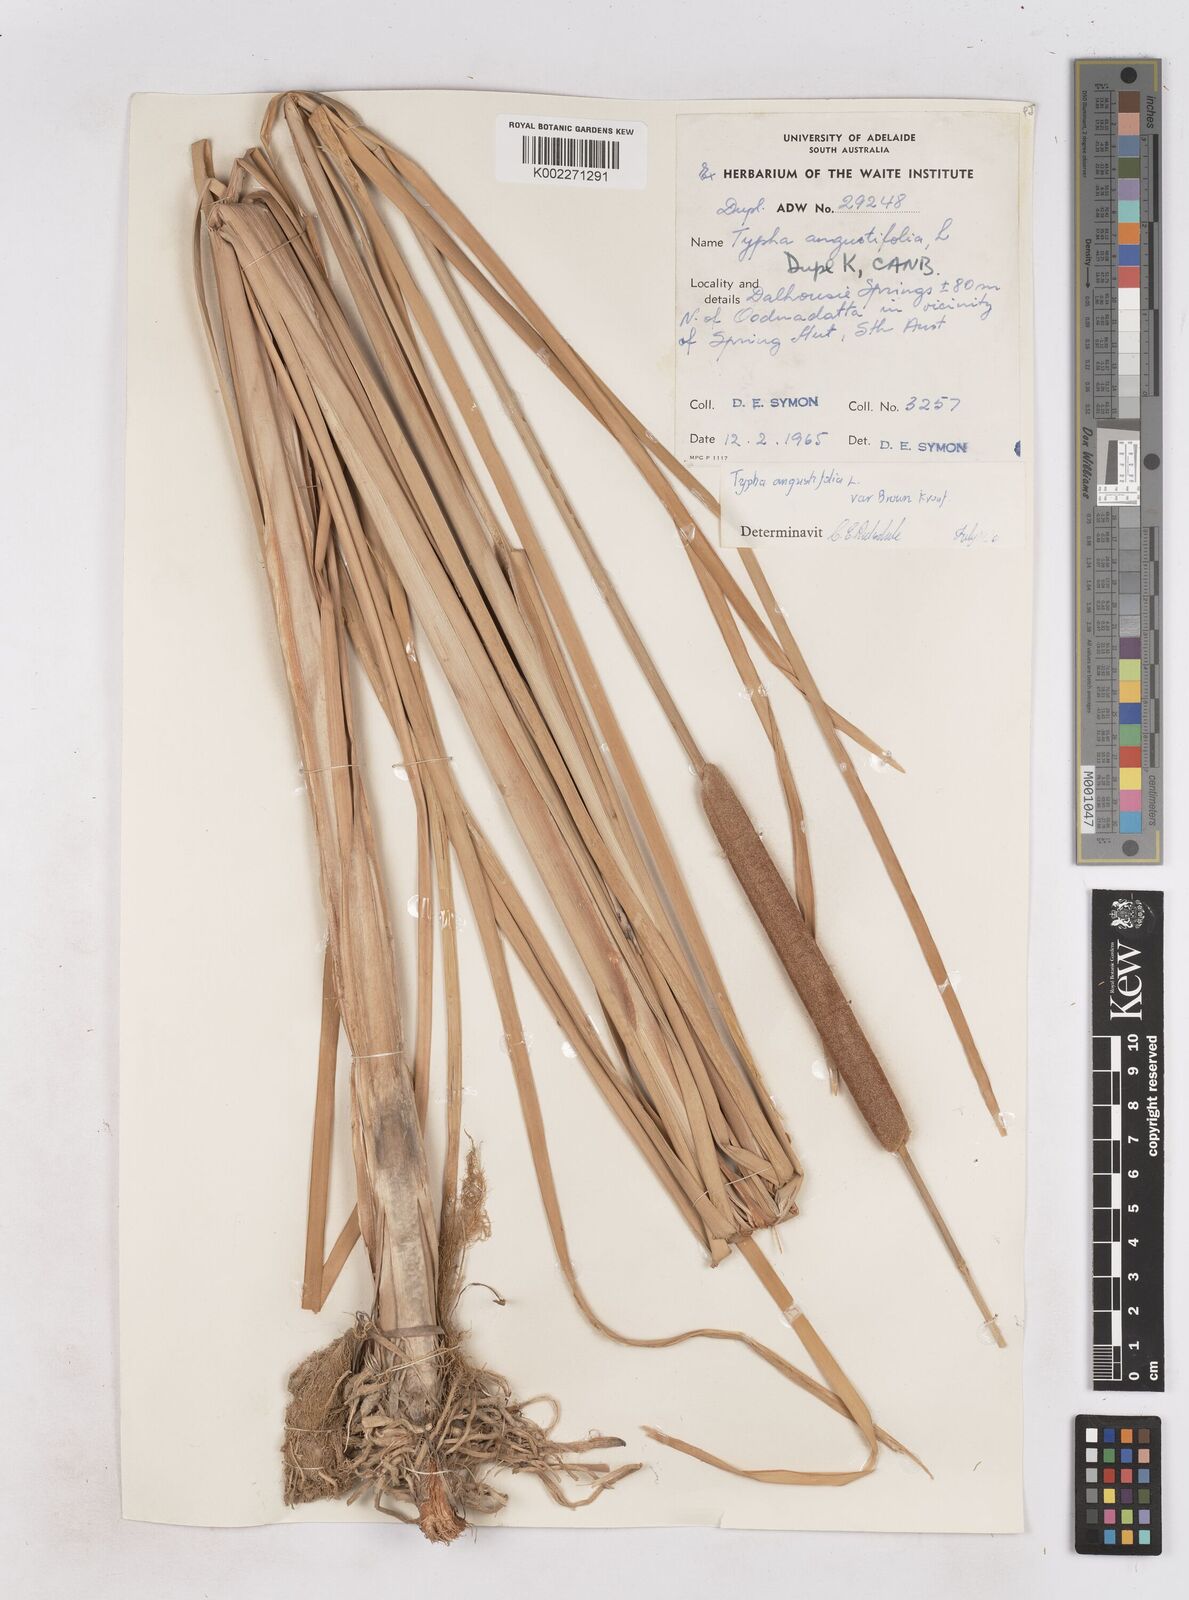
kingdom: Plantae
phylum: Tracheophyta
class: Liliopsida
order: Poales
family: Typhaceae
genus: Typha
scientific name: Typha domingensis
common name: Southern cattail
